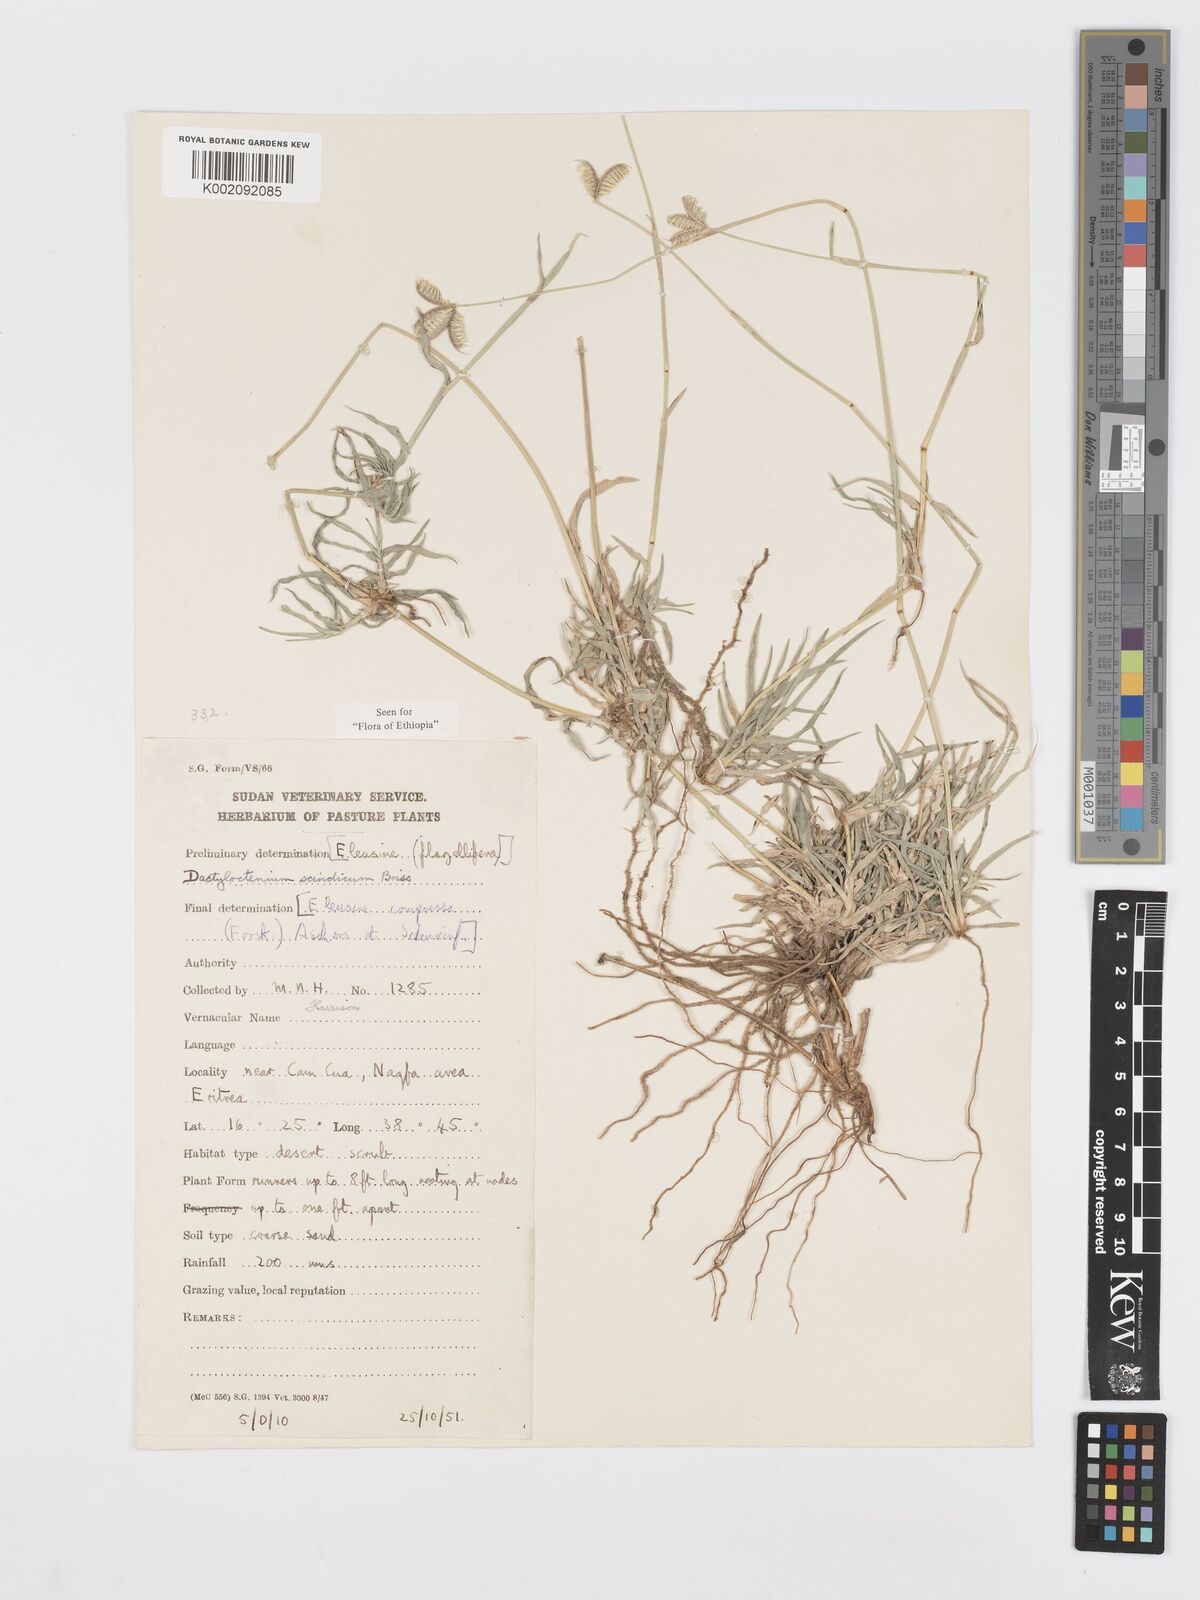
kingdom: Plantae
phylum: Tracheophyta
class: Liliopsida
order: Poales
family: Poaceae
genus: Dactyloctenium
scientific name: Dactyloctenium scindicum
